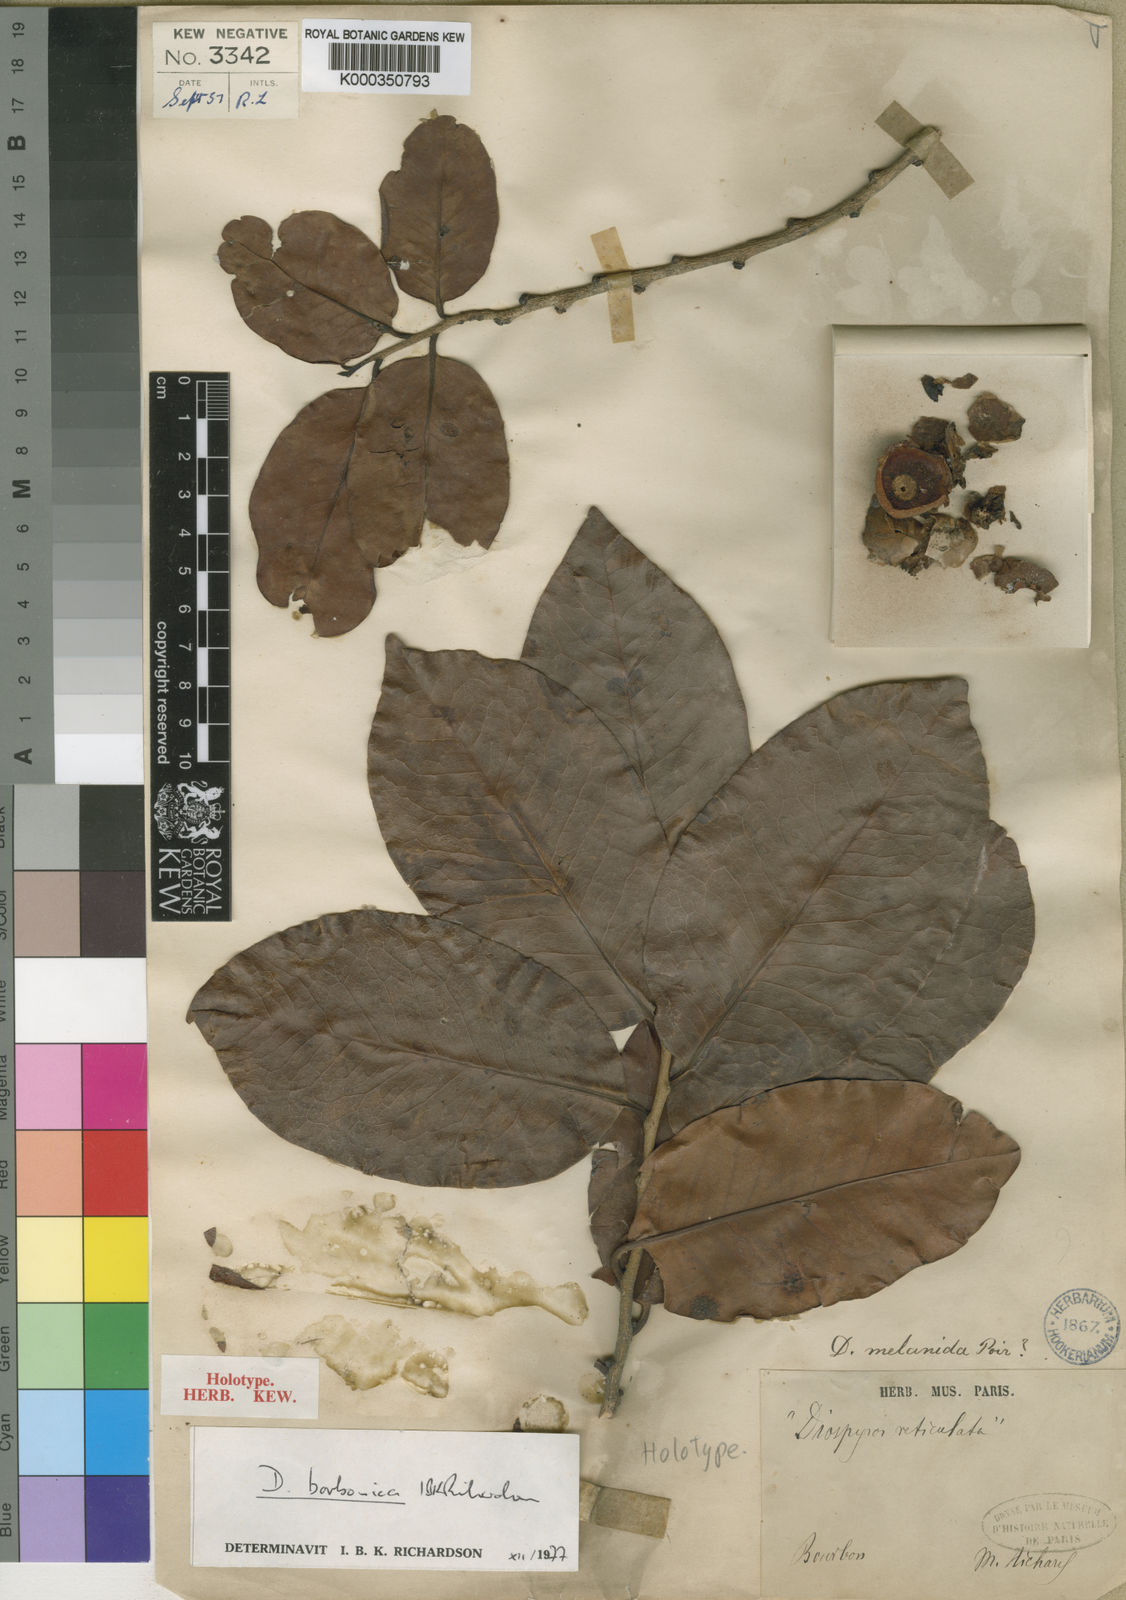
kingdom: Plantae
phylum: Tracheophyta
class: Magnoliopsida
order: Ericales
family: Ebenaceae
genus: Diospyros
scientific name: Diospyros borbonica
